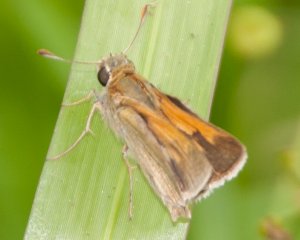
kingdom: Animalia
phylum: Arthropoda
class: Insecta
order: Lepidoptera
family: Hesperiidae
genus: Polites
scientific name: Polites themistocles
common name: Tawny-edged Skipper
